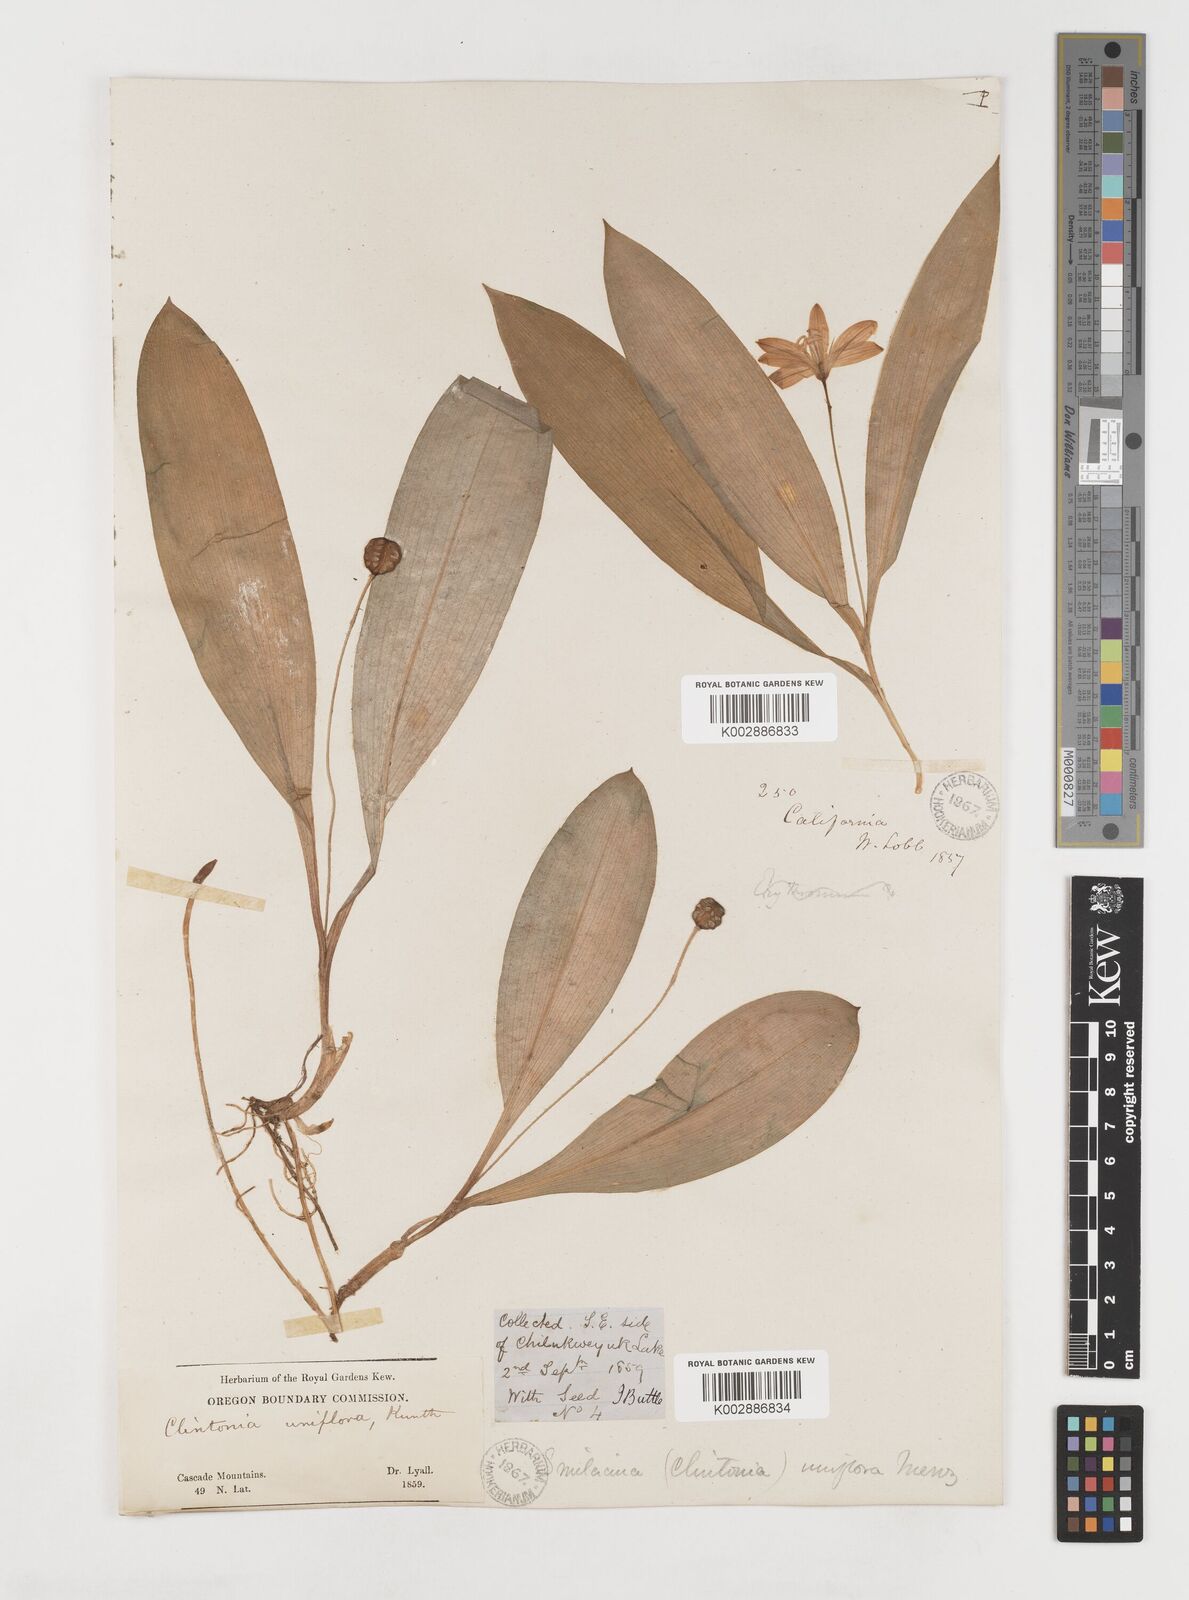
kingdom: Plantae
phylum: Tracheophyta
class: Liliopsida
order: Liliales
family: Liliaceae
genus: Clintonia
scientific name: Clintonia uniflora
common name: Queen's cup
